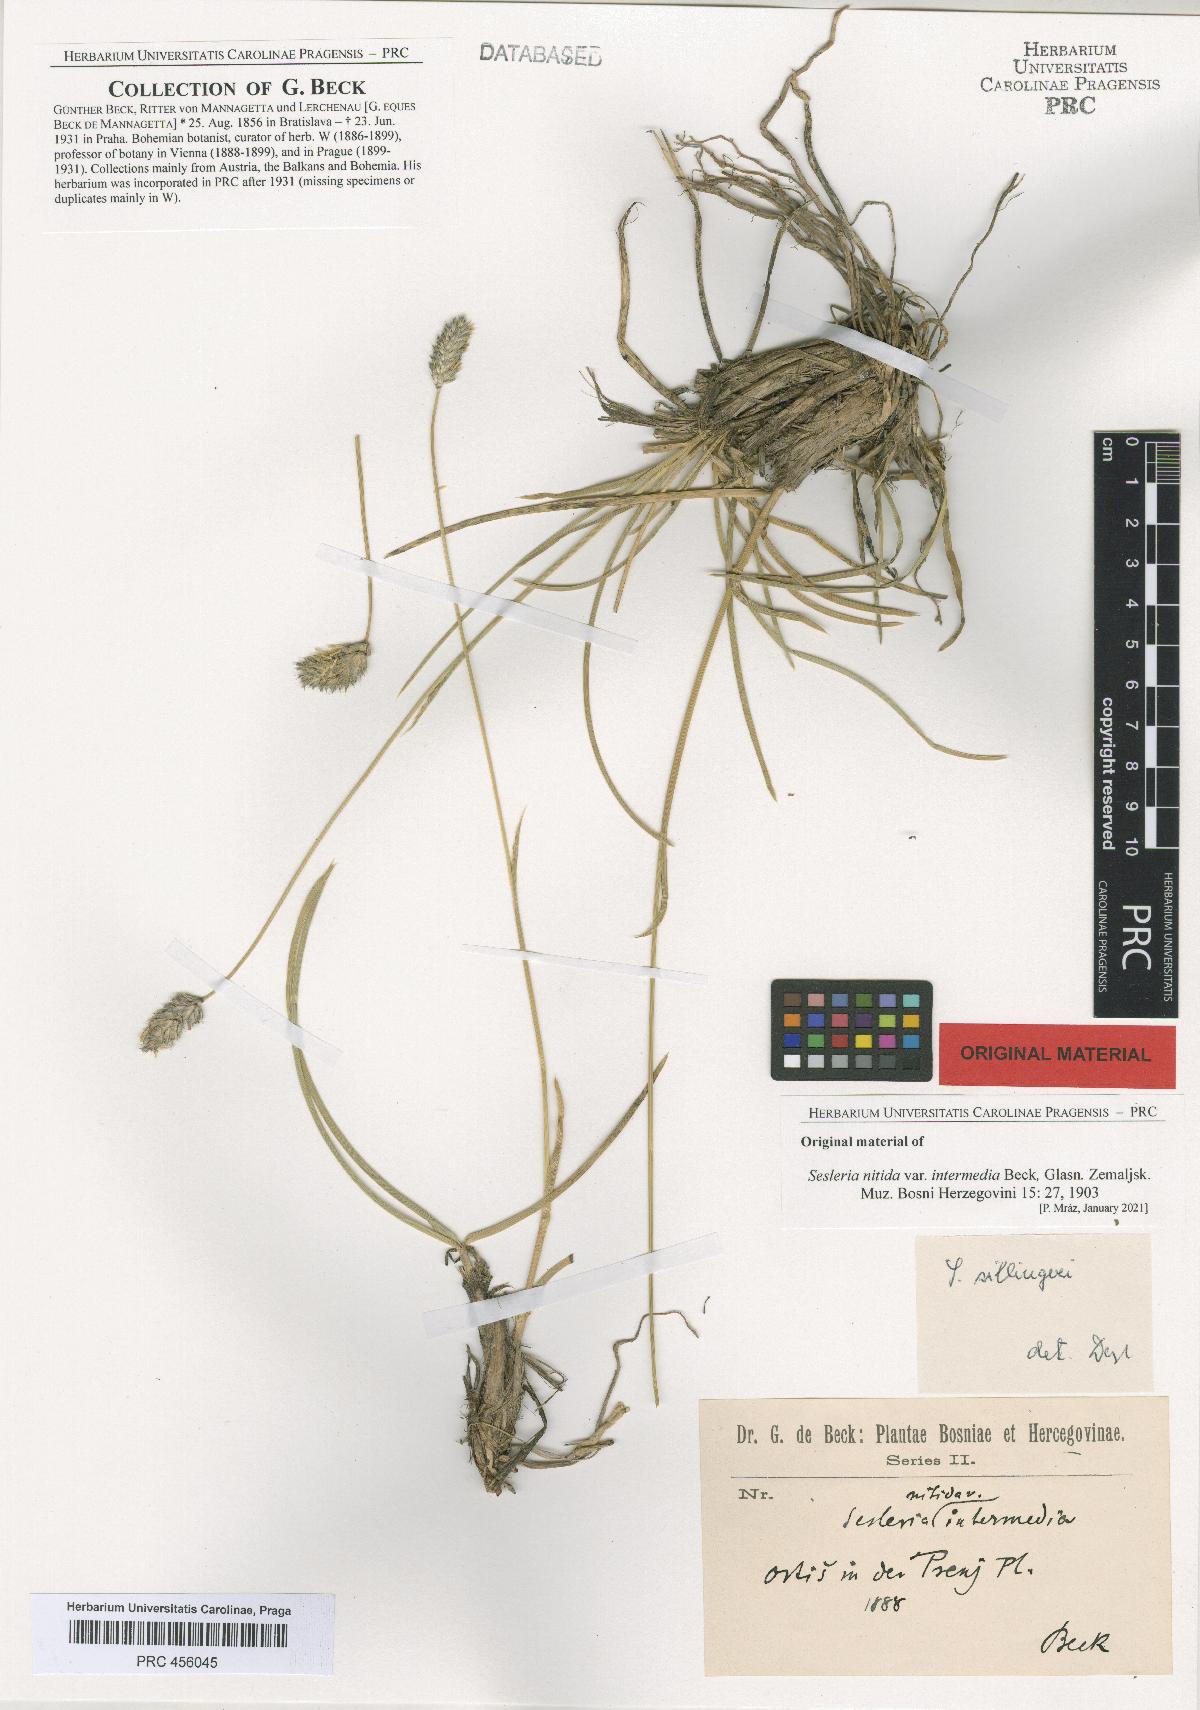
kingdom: Plantae
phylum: Tracheophyta
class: Liliopsida
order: Poales
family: Poaceae
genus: Sesleria
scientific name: Sesleria robusta
